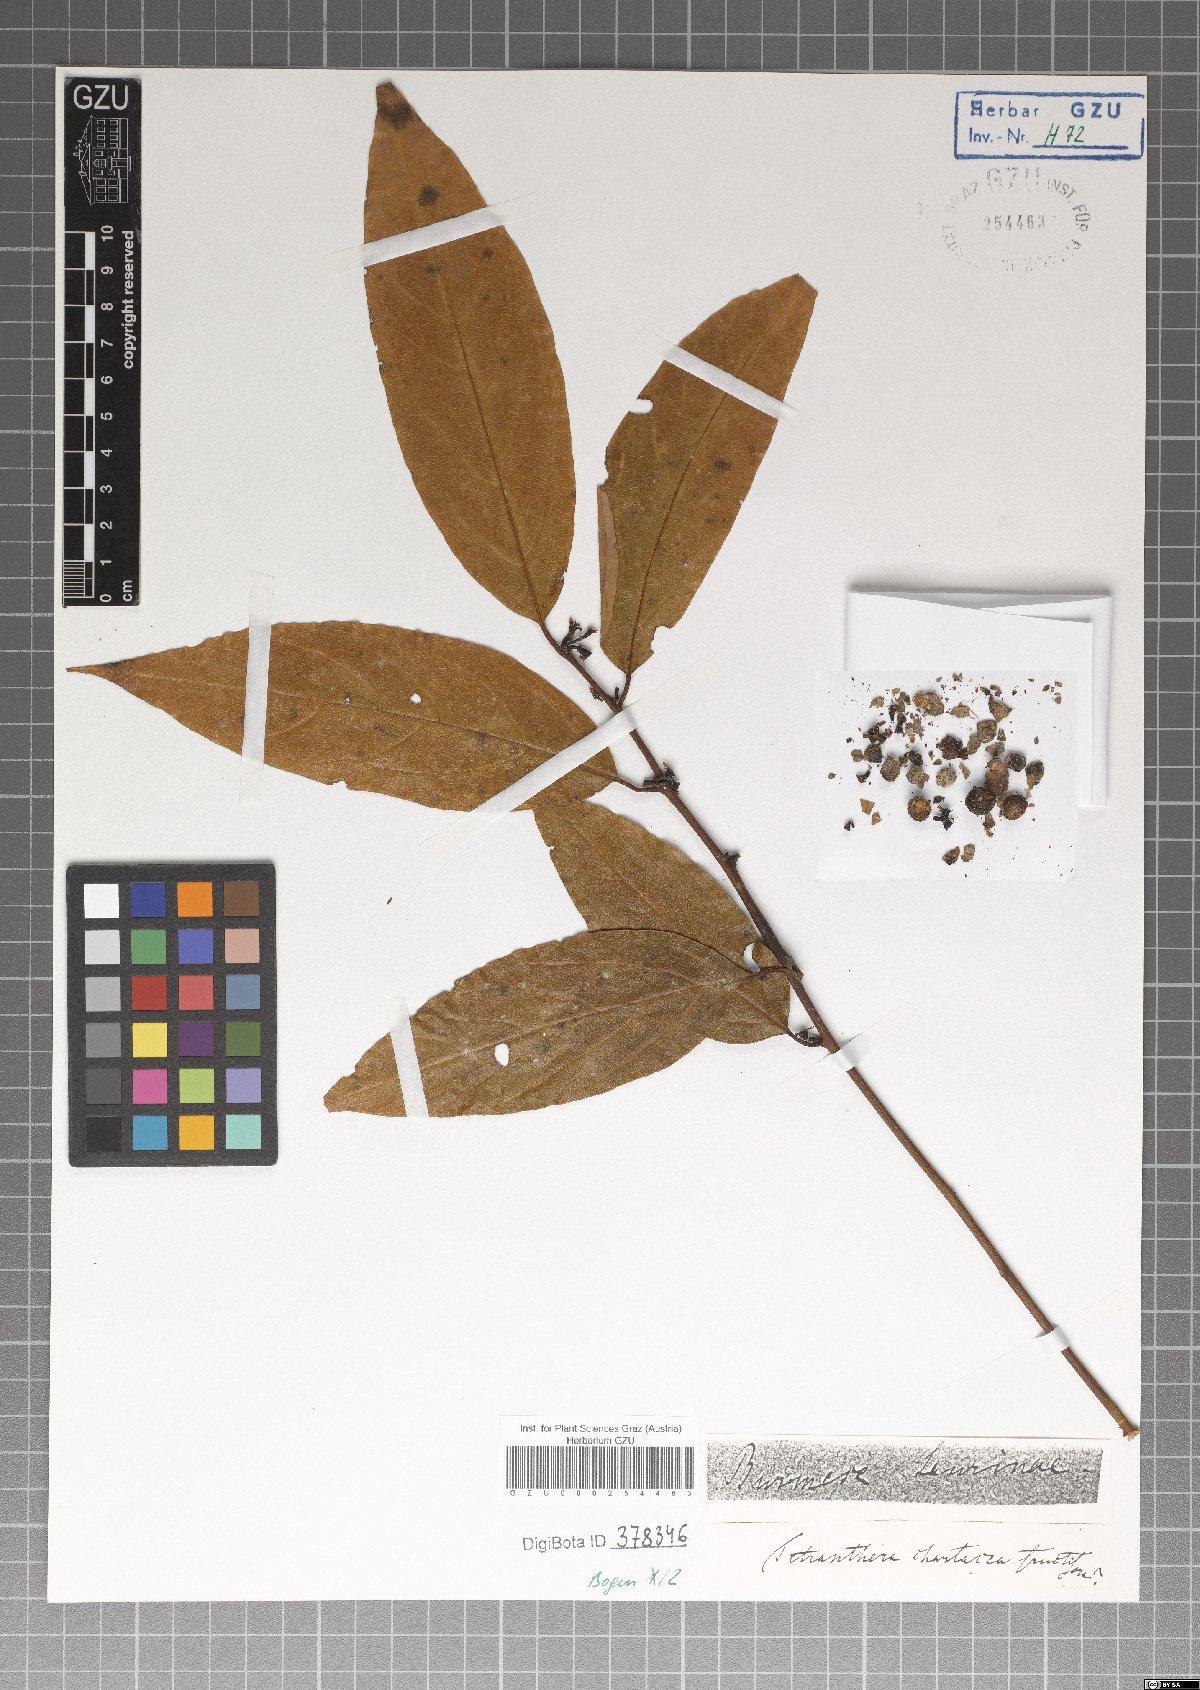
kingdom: Plantae
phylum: Tracheophyta
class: Magnoliopsida
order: Laurales
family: Lauraceae
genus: Litsea
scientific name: Litsea chartacea
